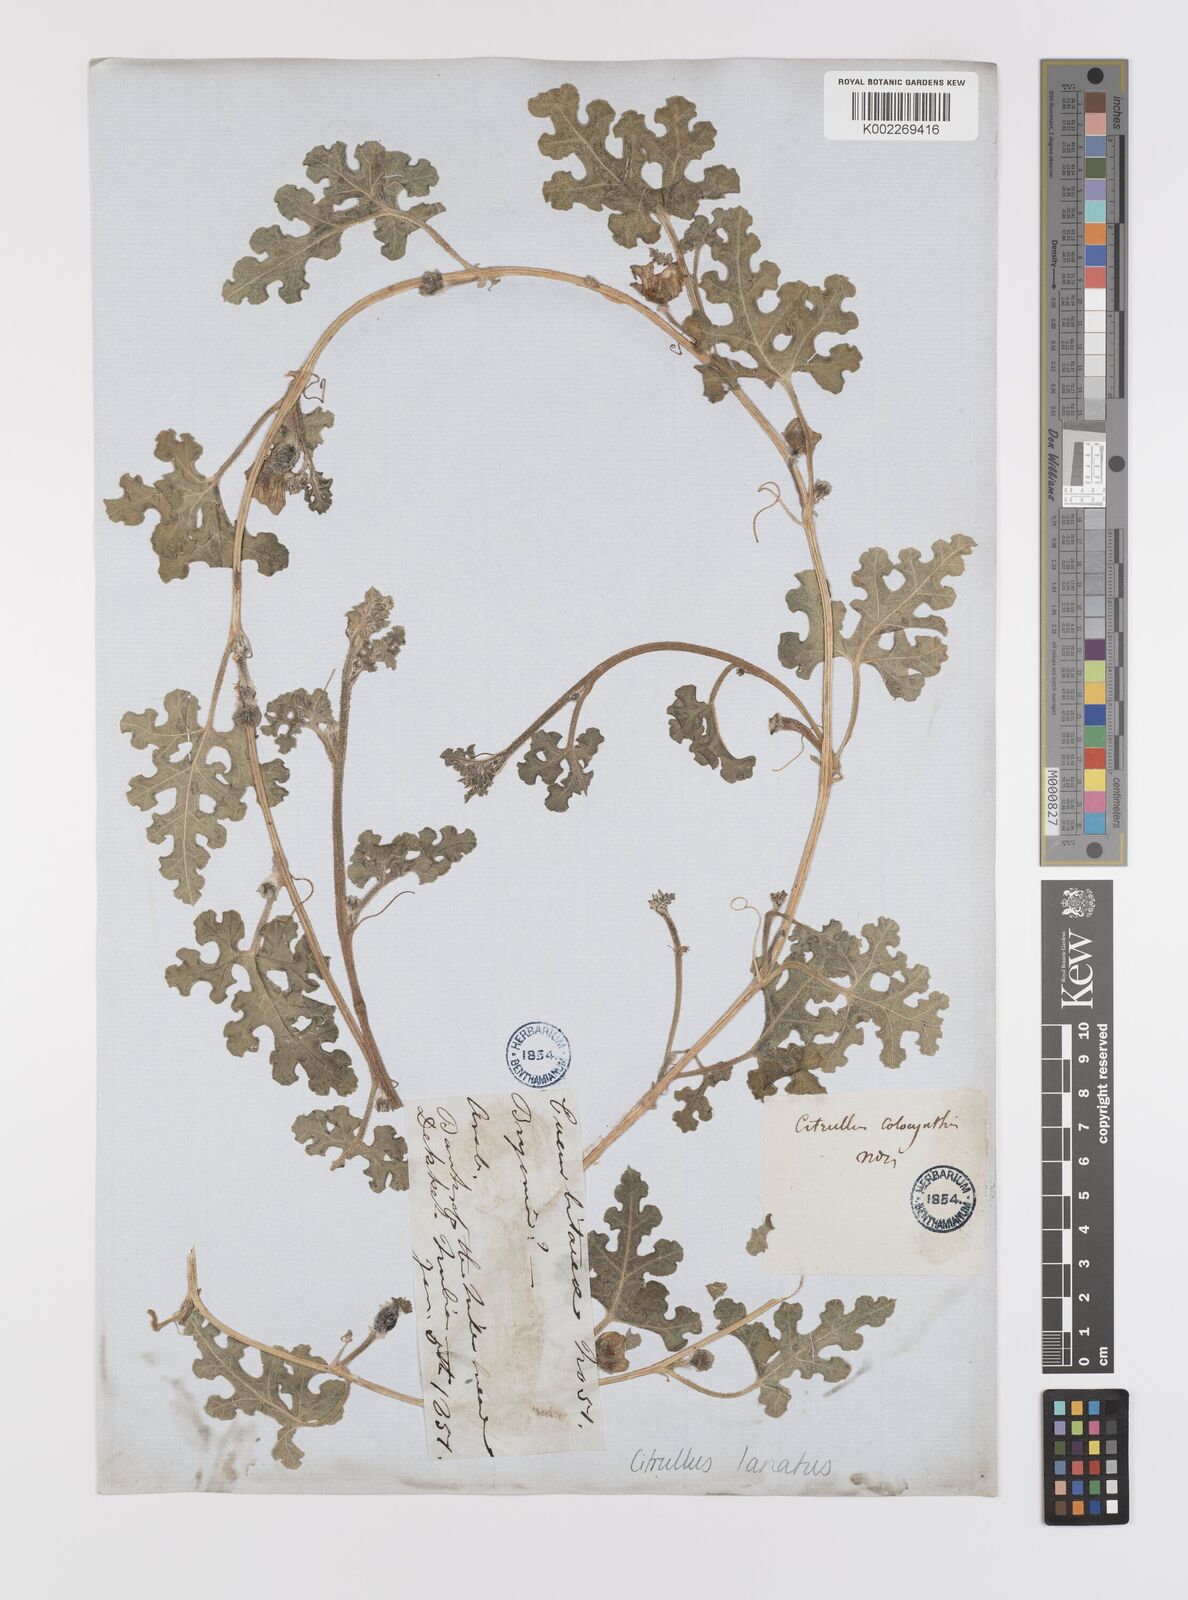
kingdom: Plantae
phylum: Tracheophyta
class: Magnoliopsida
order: Cucurbitales
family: Cucurbitaceae
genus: Citrullus
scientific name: Citrullus lanatus
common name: Watermelon
